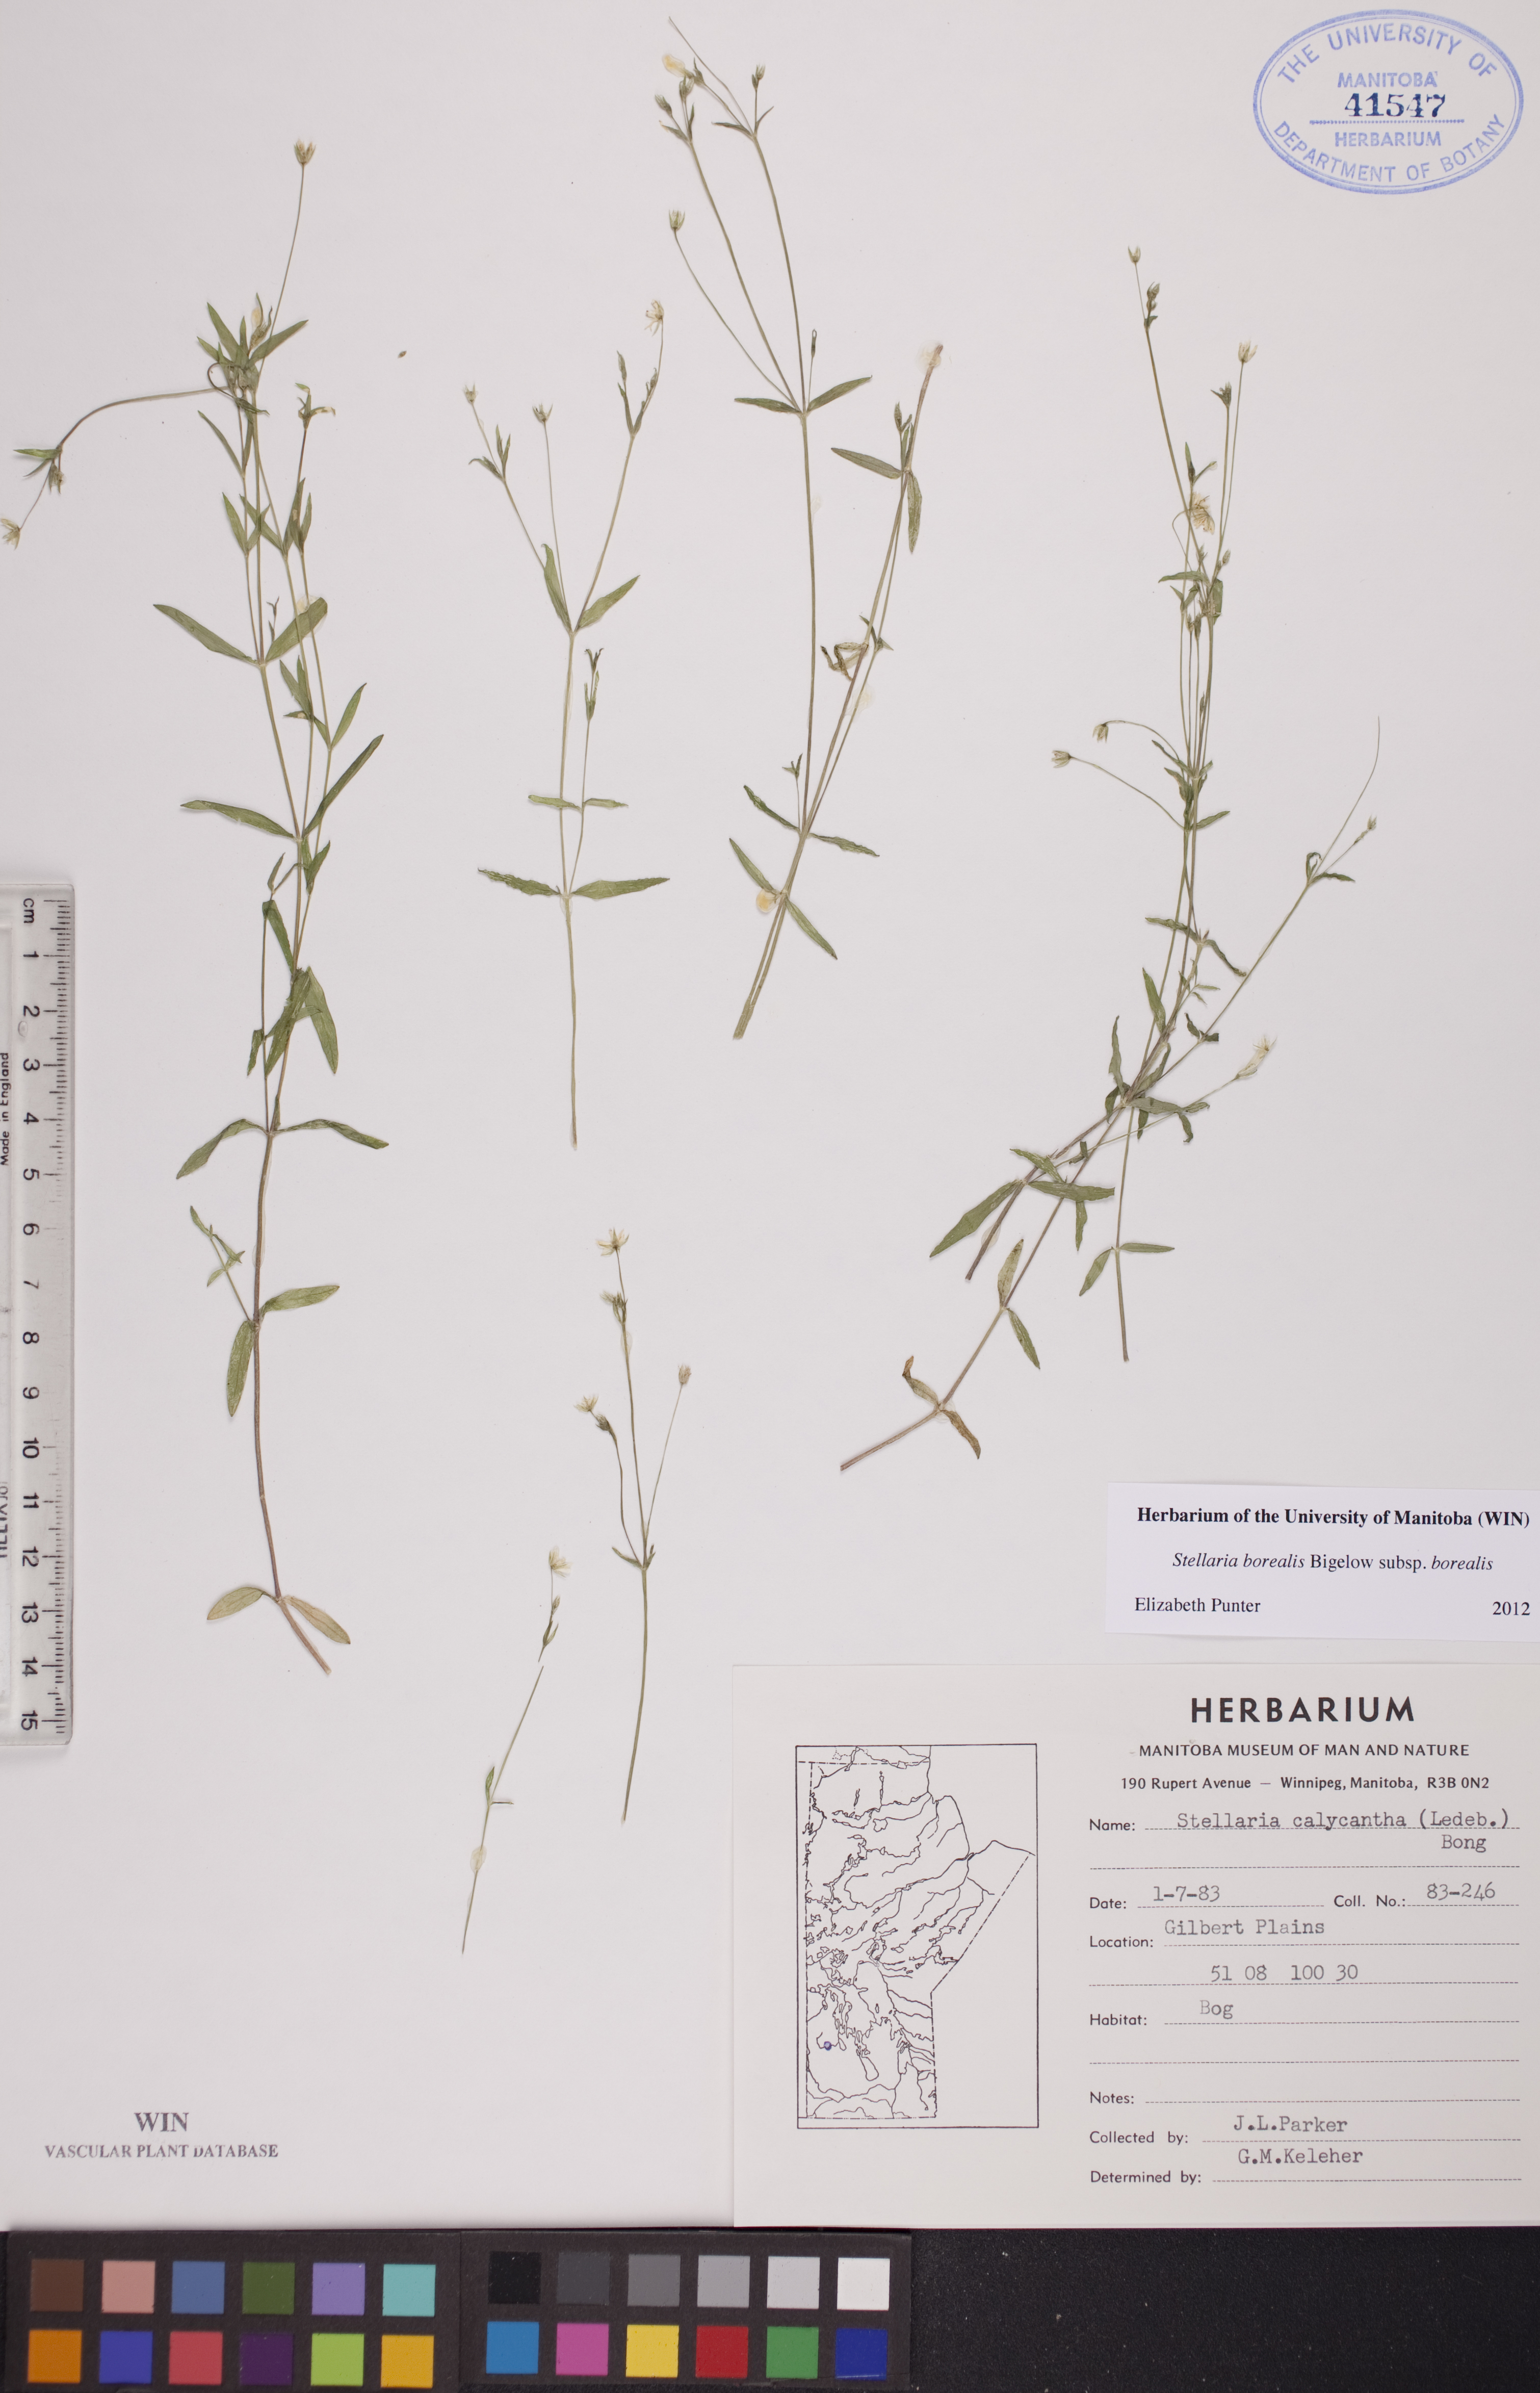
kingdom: Plantae
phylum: Tracheophyta
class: Magnoliopsida
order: Caryophyllales
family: Caryophyllaceae
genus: Stellaria
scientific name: Stellaria borealis
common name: Boreal starwort
